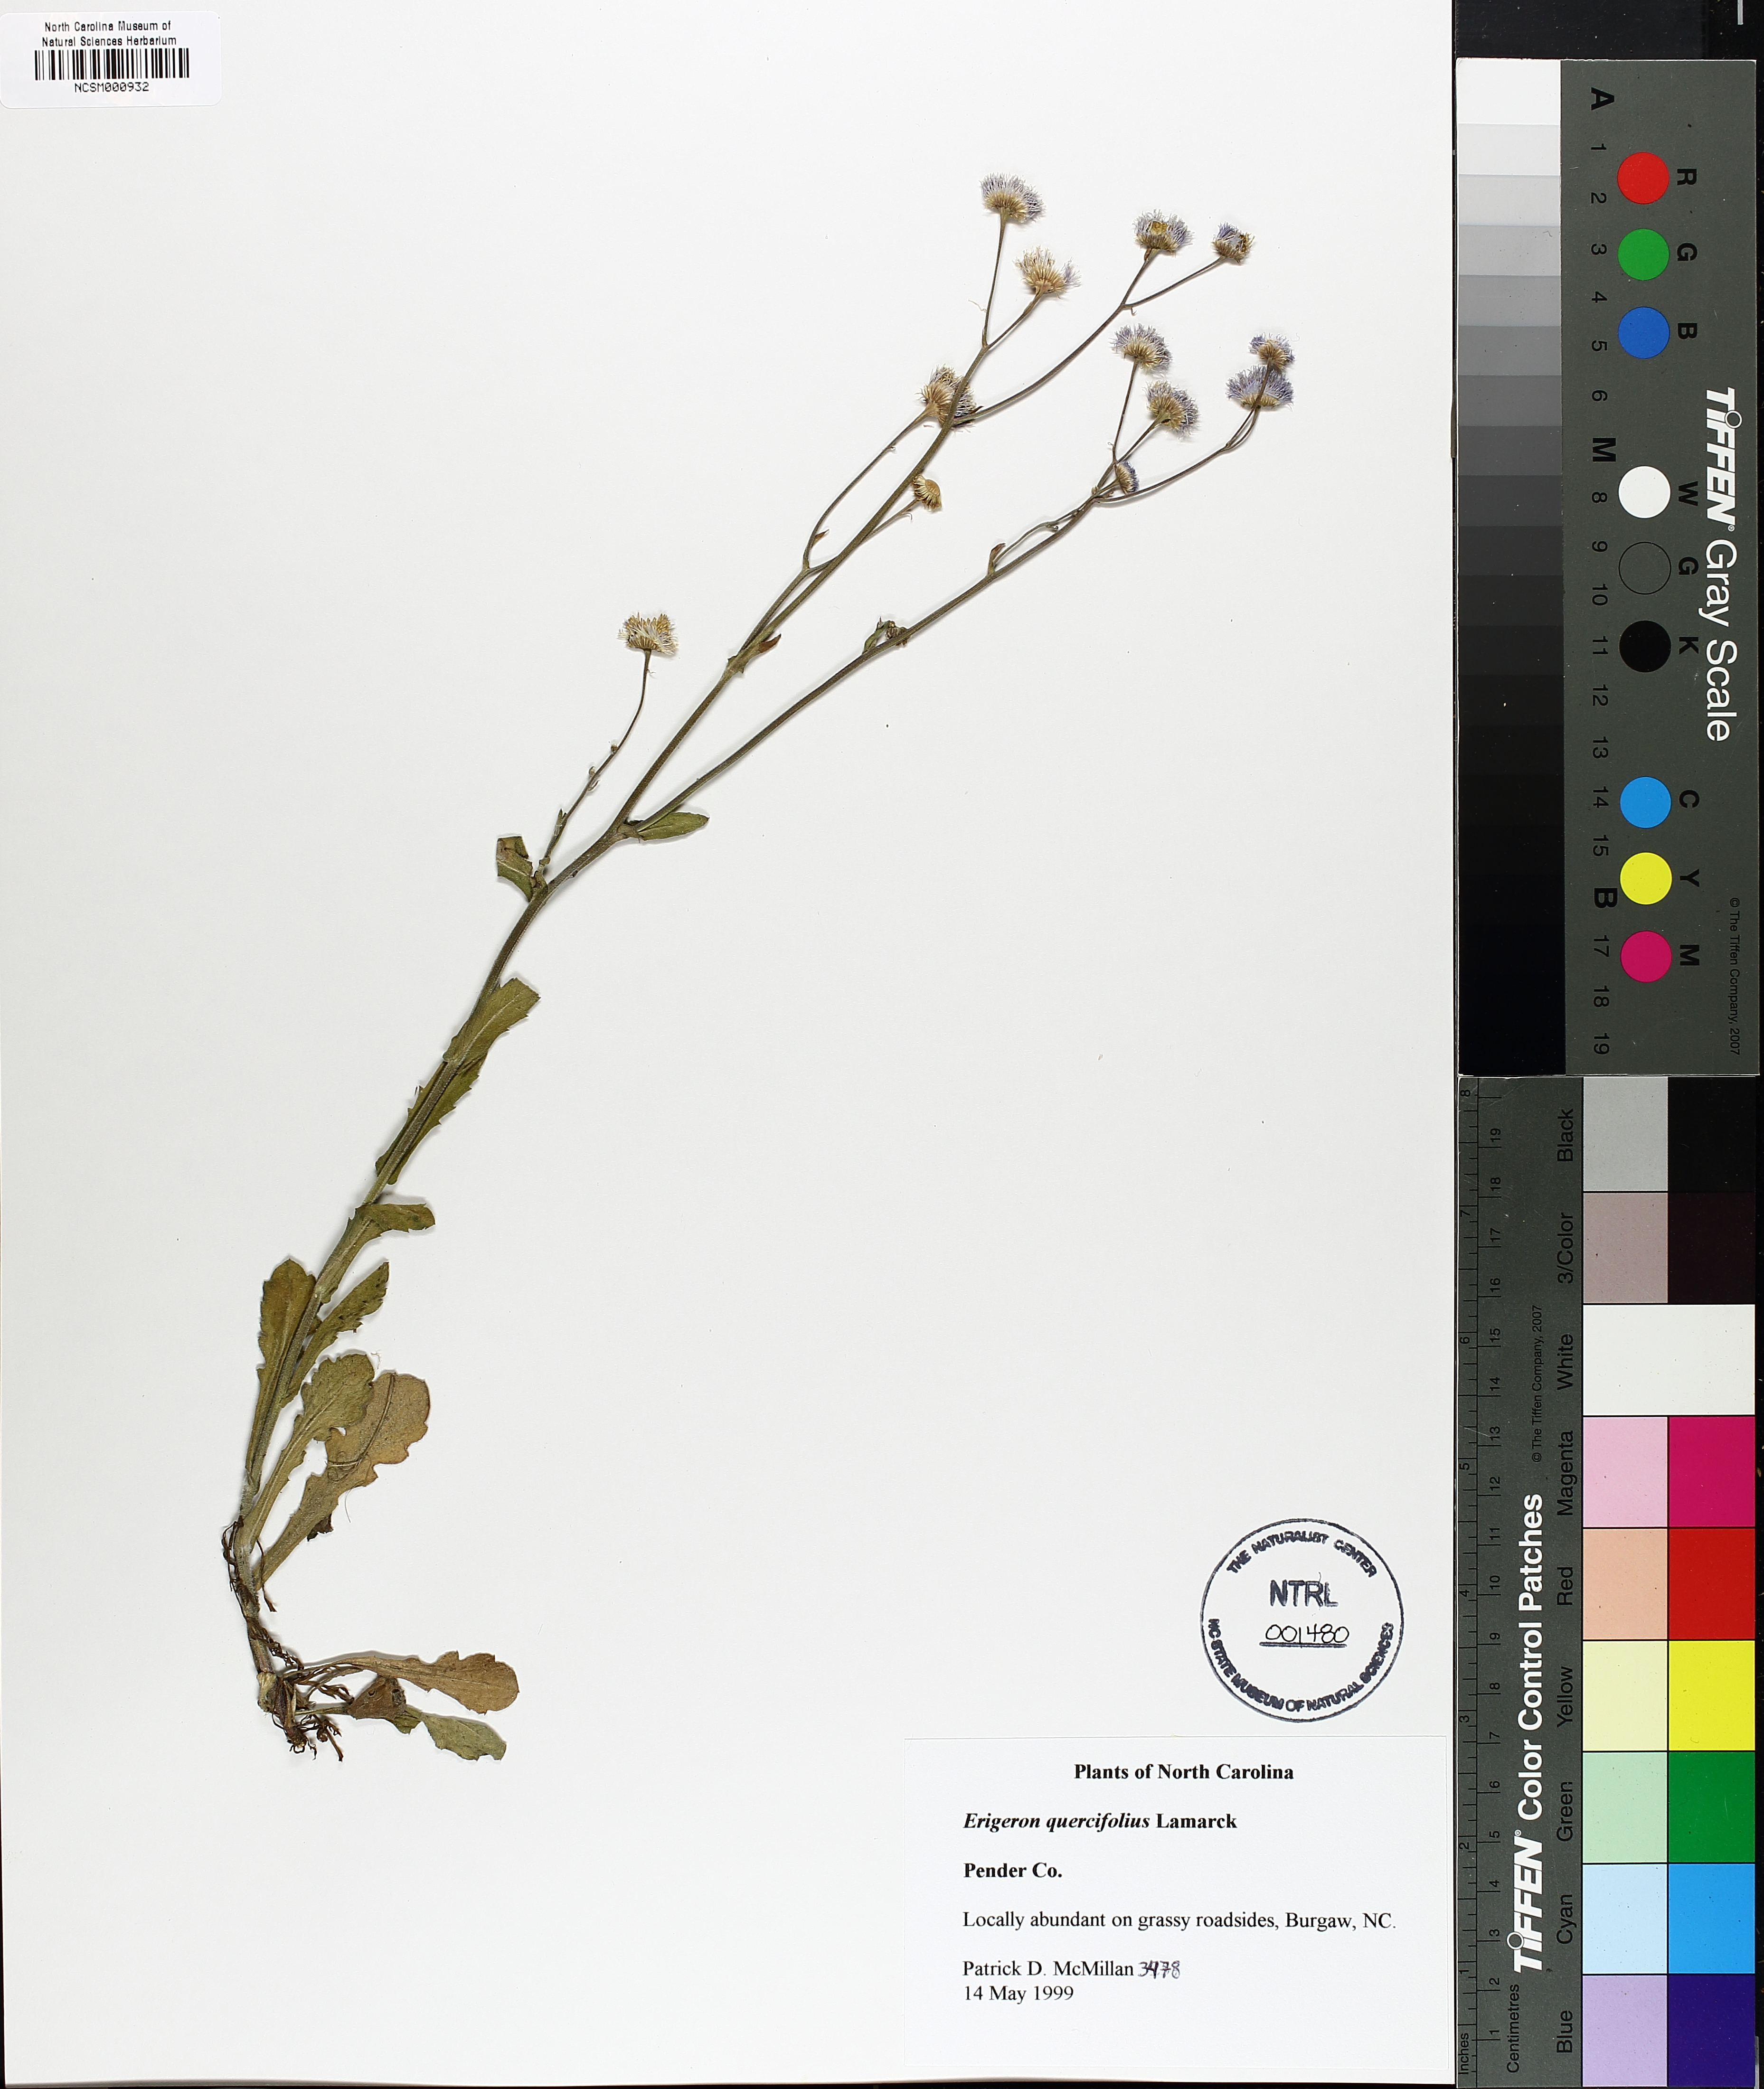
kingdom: Plantae
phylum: Tracheophyta
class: Magnoliopsida
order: Asterales
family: Asteraceae
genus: Erigeron
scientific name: Erigeron quercifolius
